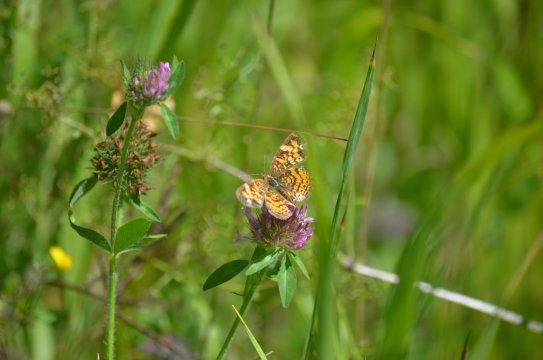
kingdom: Animalia
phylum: Arthropoda
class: Insecta
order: Lepidoptera
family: Nymphalidae
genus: Phyciodes
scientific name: Phyciodes tharos
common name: Northern Crescent
